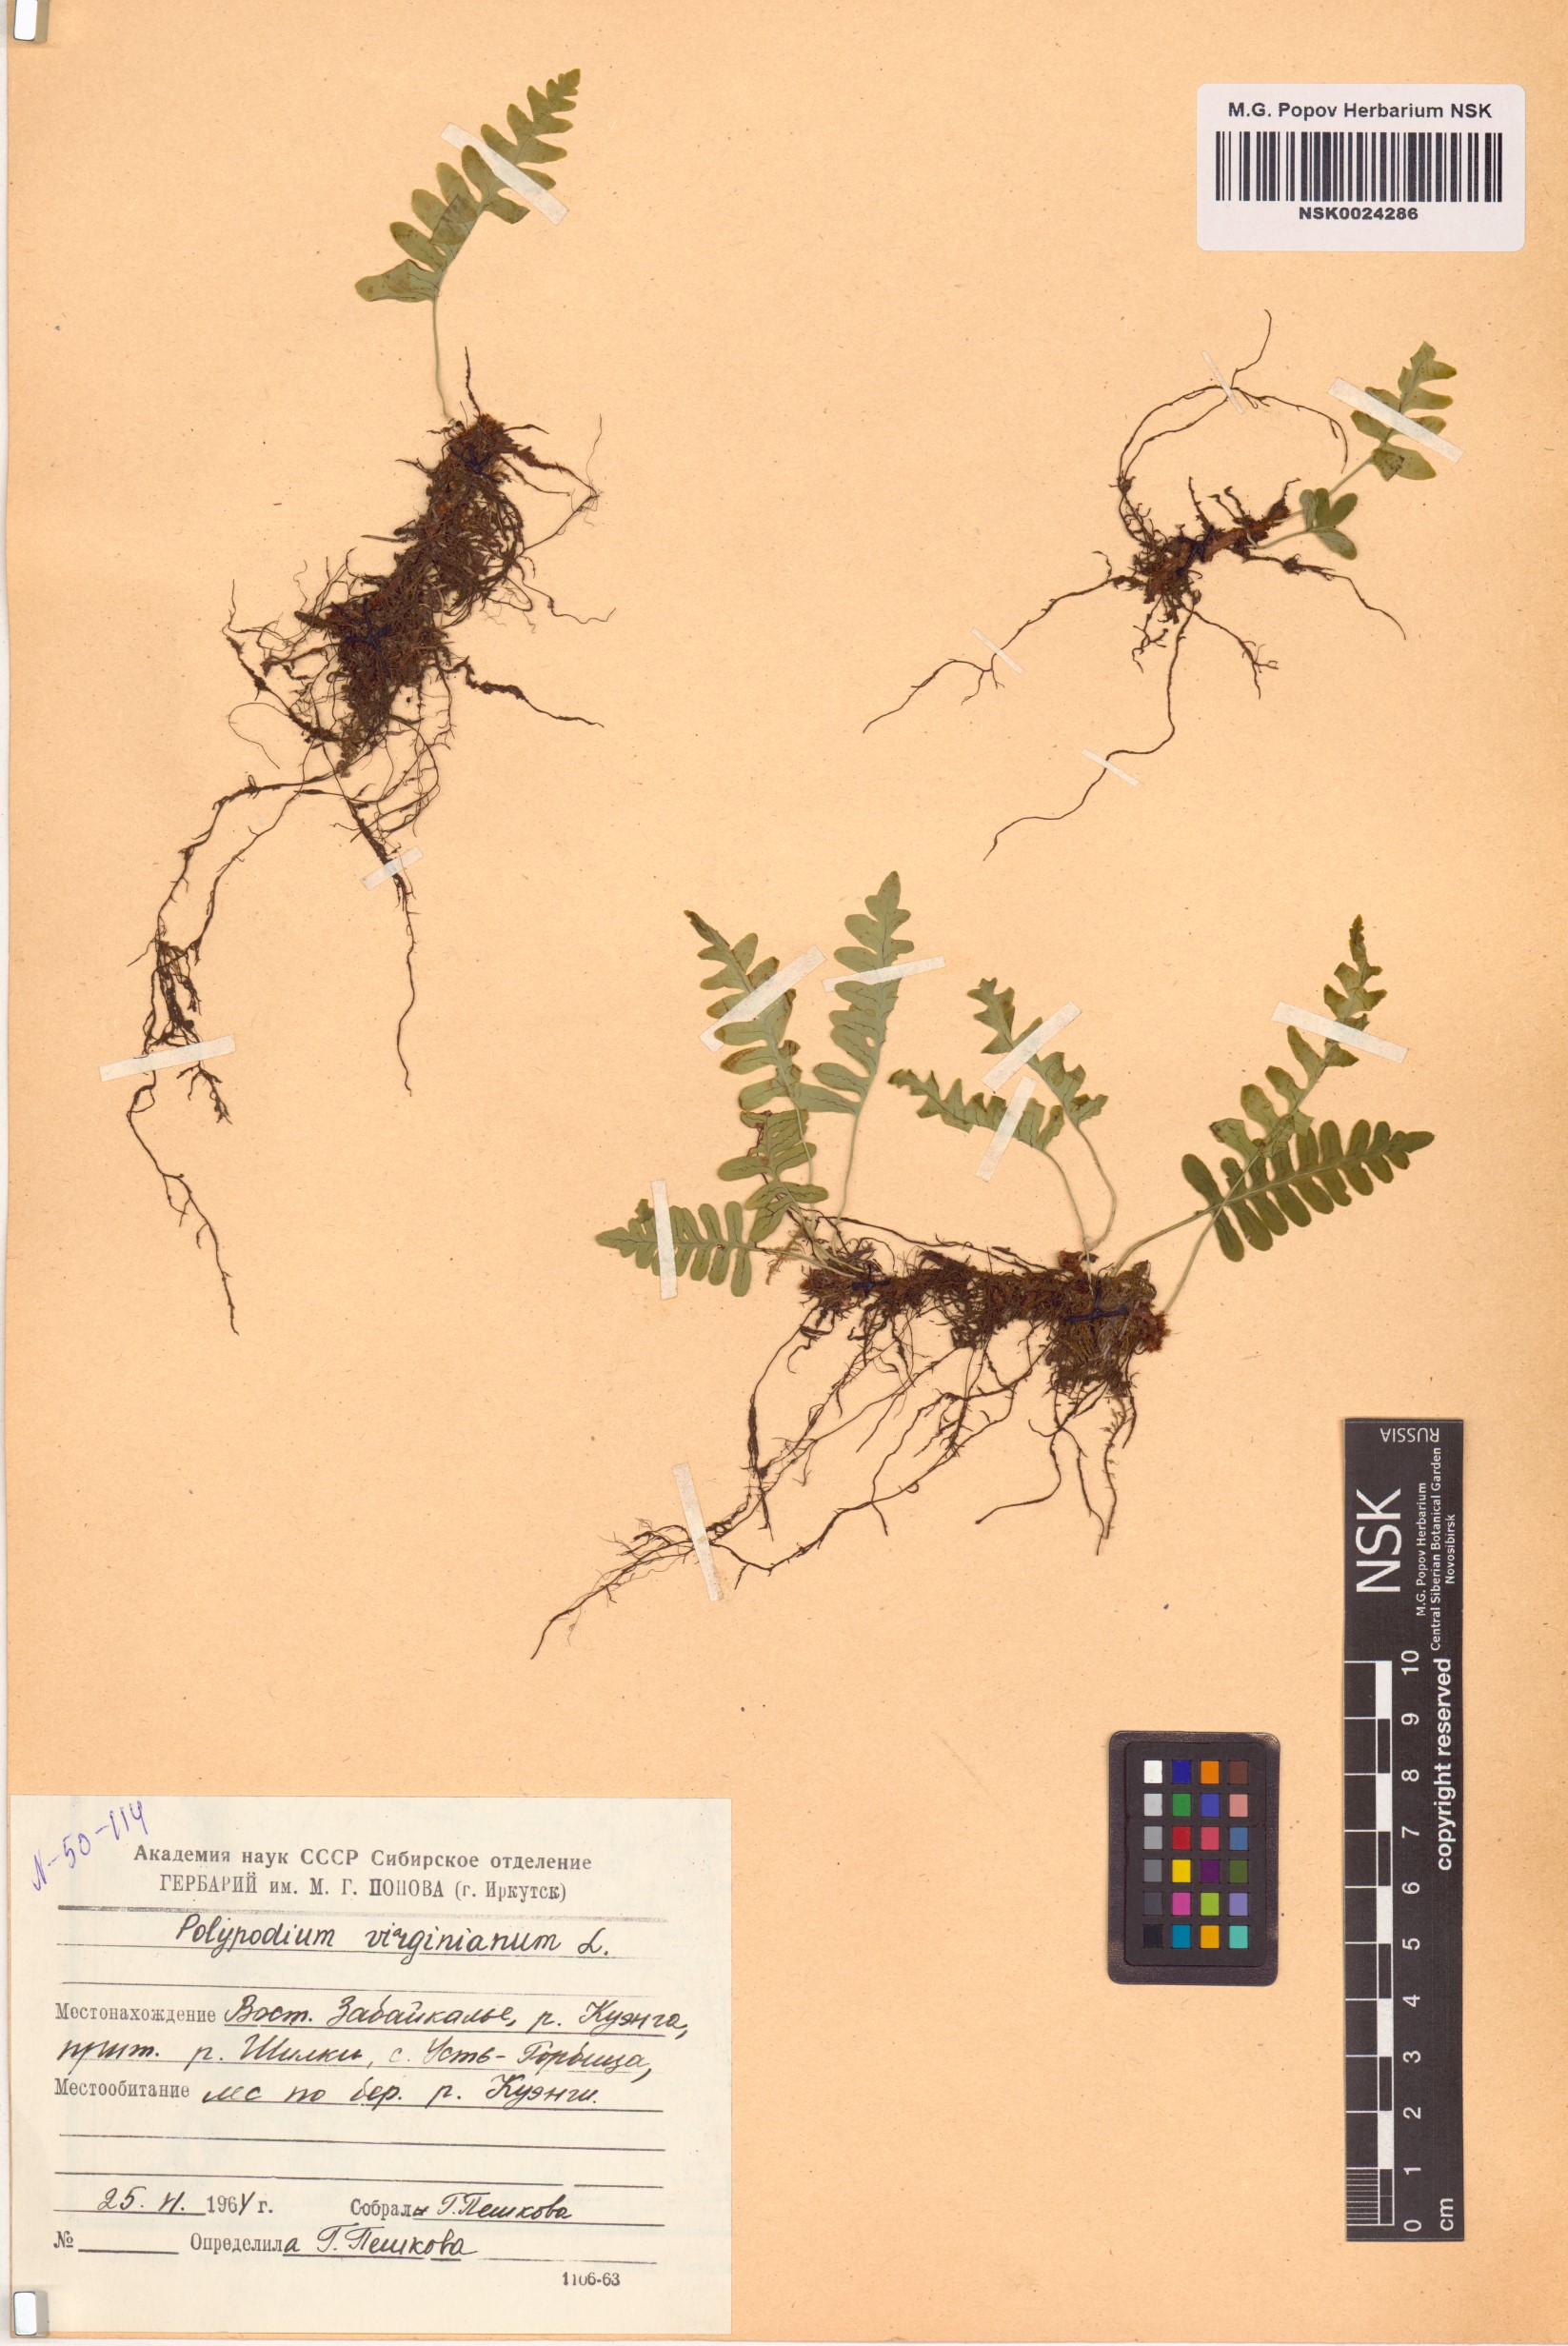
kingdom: Plantae
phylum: Tracheophyta
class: Polypodiopsida
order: Polypodiales
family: Polypodiaceae
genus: Polypodium
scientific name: Polypodium virginianum
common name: American wall fern
